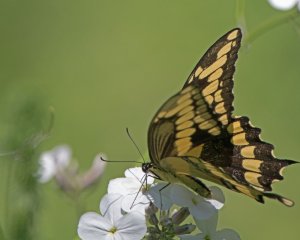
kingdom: Animalia
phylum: Arthropoda
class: Insecta
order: Lepidoptera
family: Papilionidae
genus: Papilio
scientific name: Papilio cresphontes
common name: Eastern Giant Swallowtail
